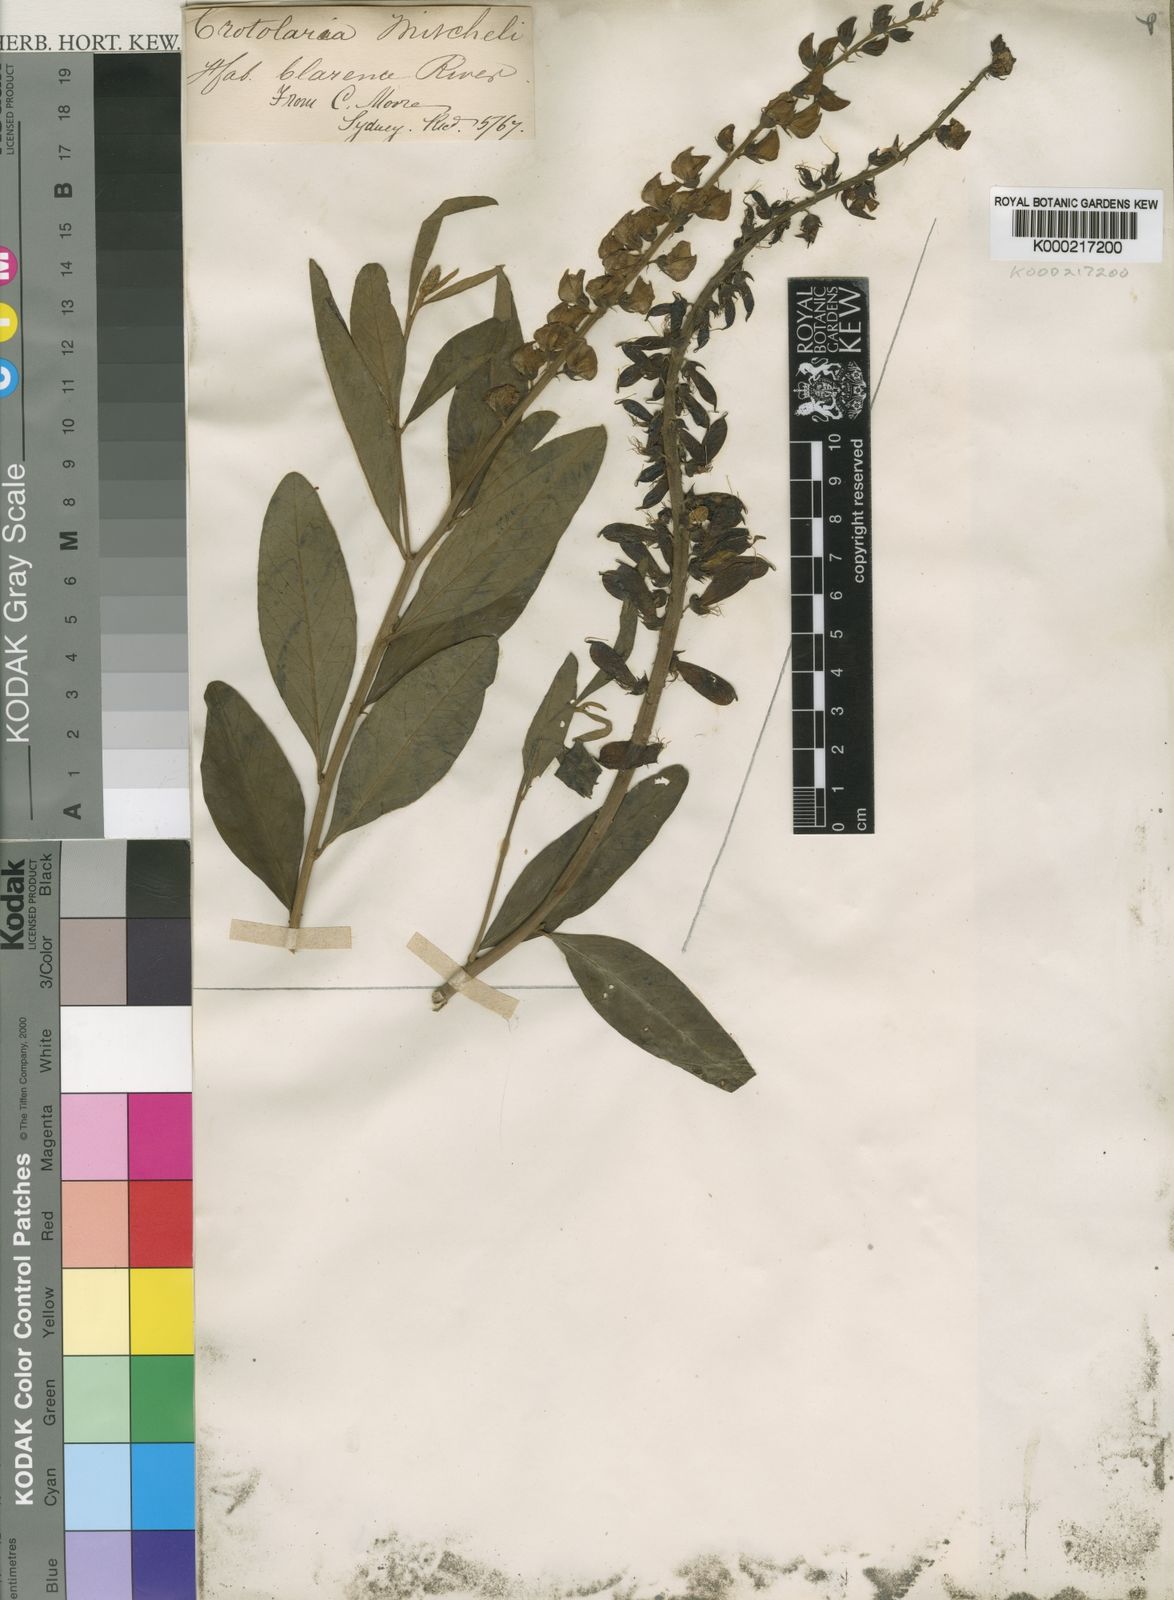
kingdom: Plantae
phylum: Tracheophyta
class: Magnoliopsida
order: Fabales
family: Fabaceae
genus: Crotalaria
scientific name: Crotalaria mitchellii
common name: Yellow rattlepod
